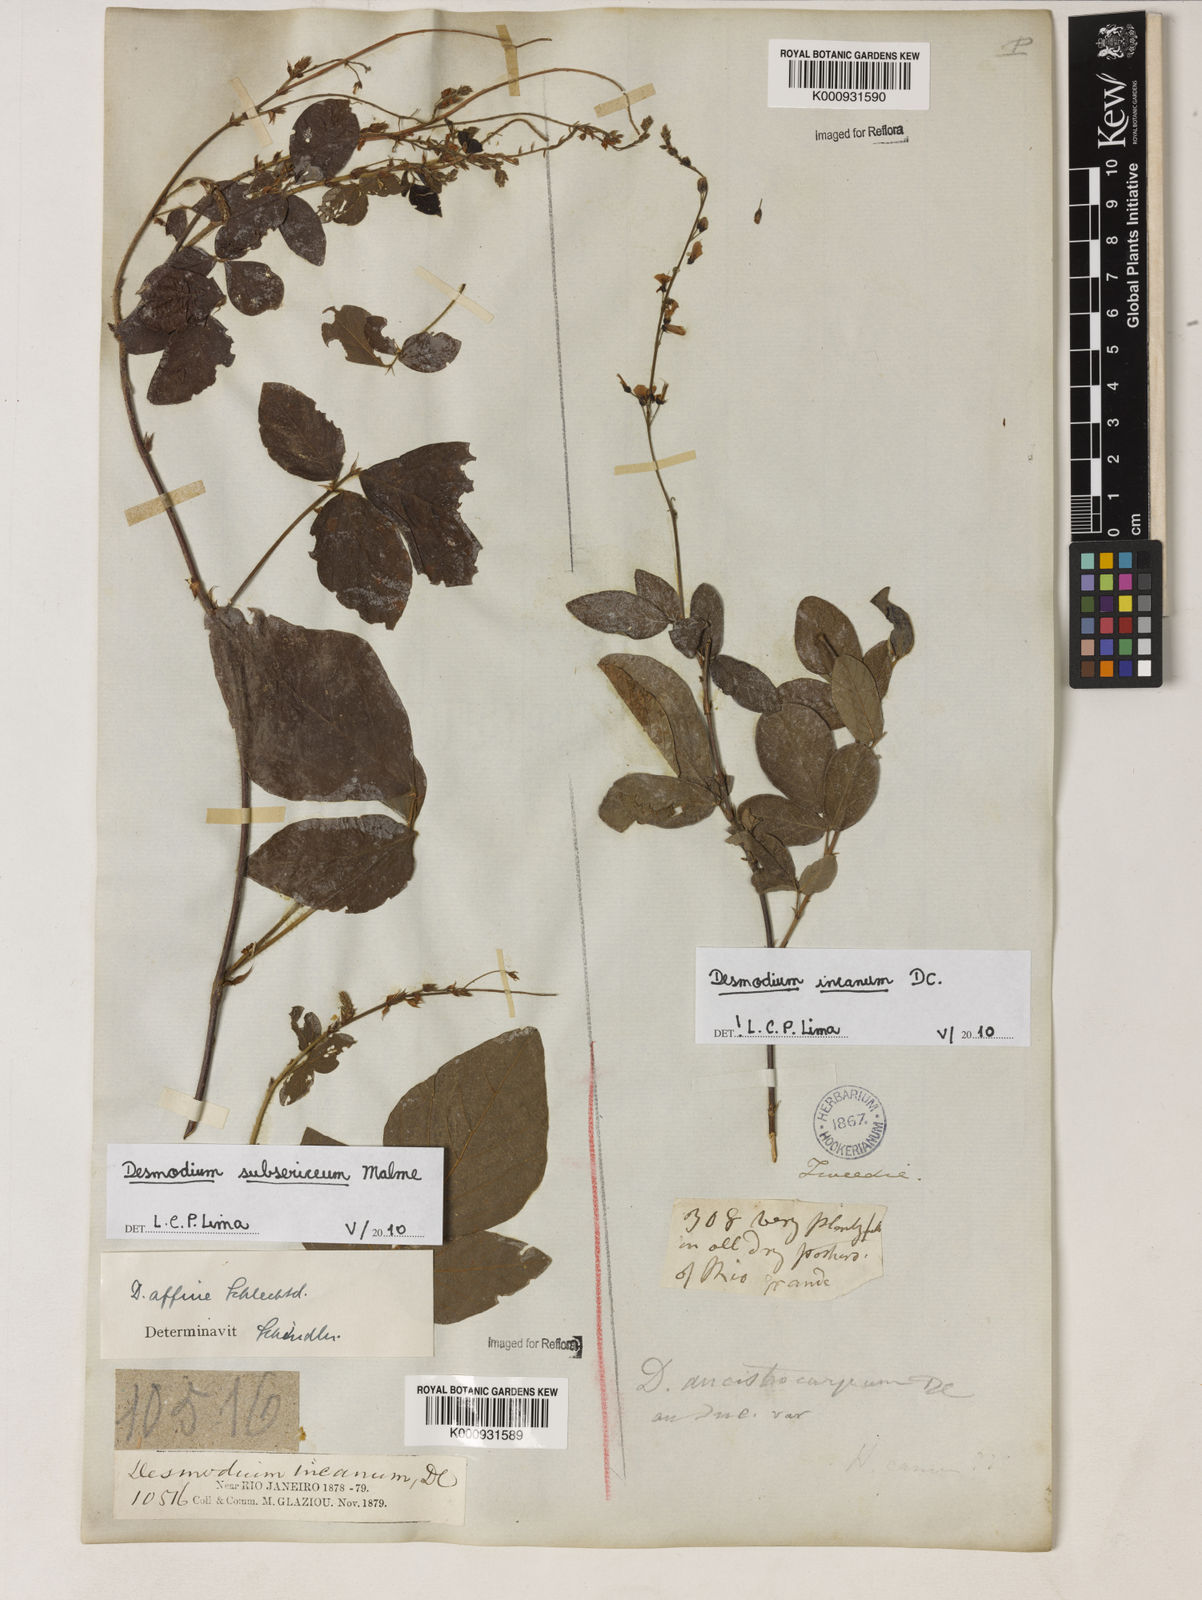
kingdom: Plantae
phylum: Tracheophyta
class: Magnoliopsida
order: Fabales
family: Fabaceae
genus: Desmodium
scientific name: Desmodium incanum
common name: Tickclover
